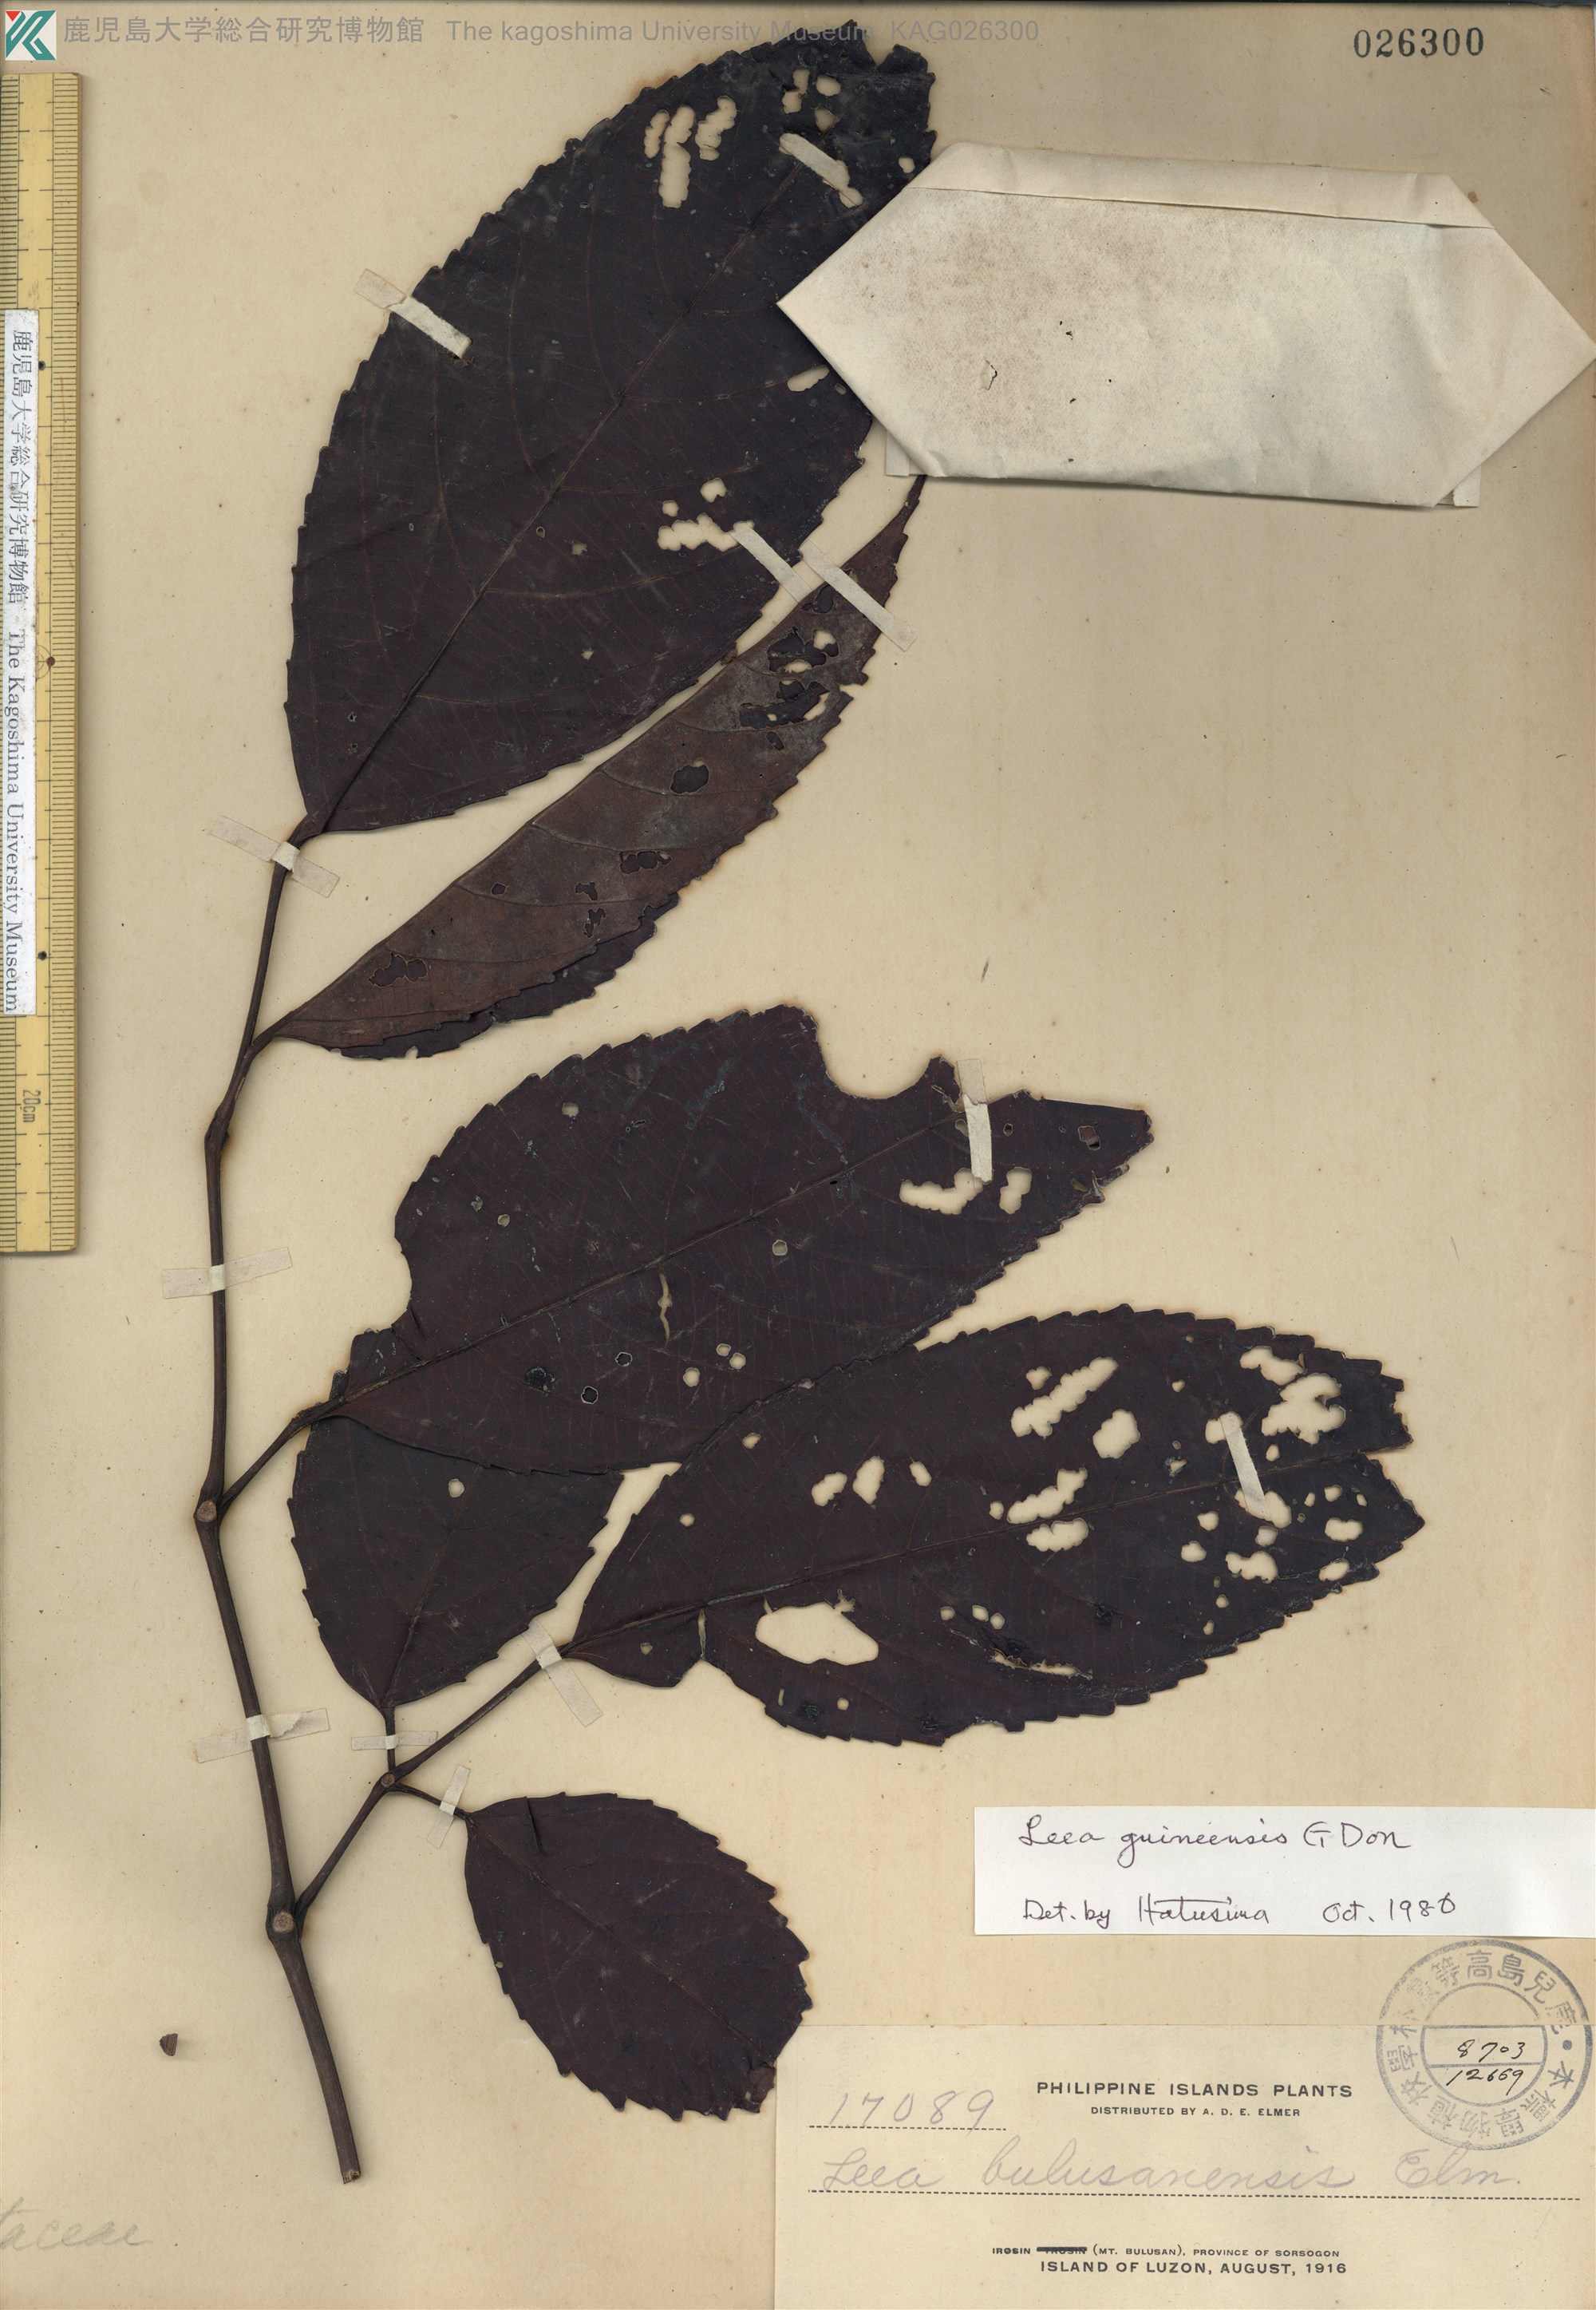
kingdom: Plantae
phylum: Tracheophyta
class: Magnoliopsida
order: Vitales
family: Vitaceae
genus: Leea
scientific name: Leea guineensis
